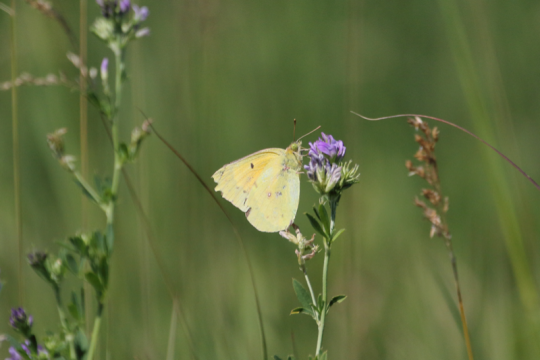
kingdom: Animalia
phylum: Arthropoda
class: Insecta
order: Lepidoptera
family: Pieridae
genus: Colias
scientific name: Colias eurytheme
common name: Orange Sulphur
